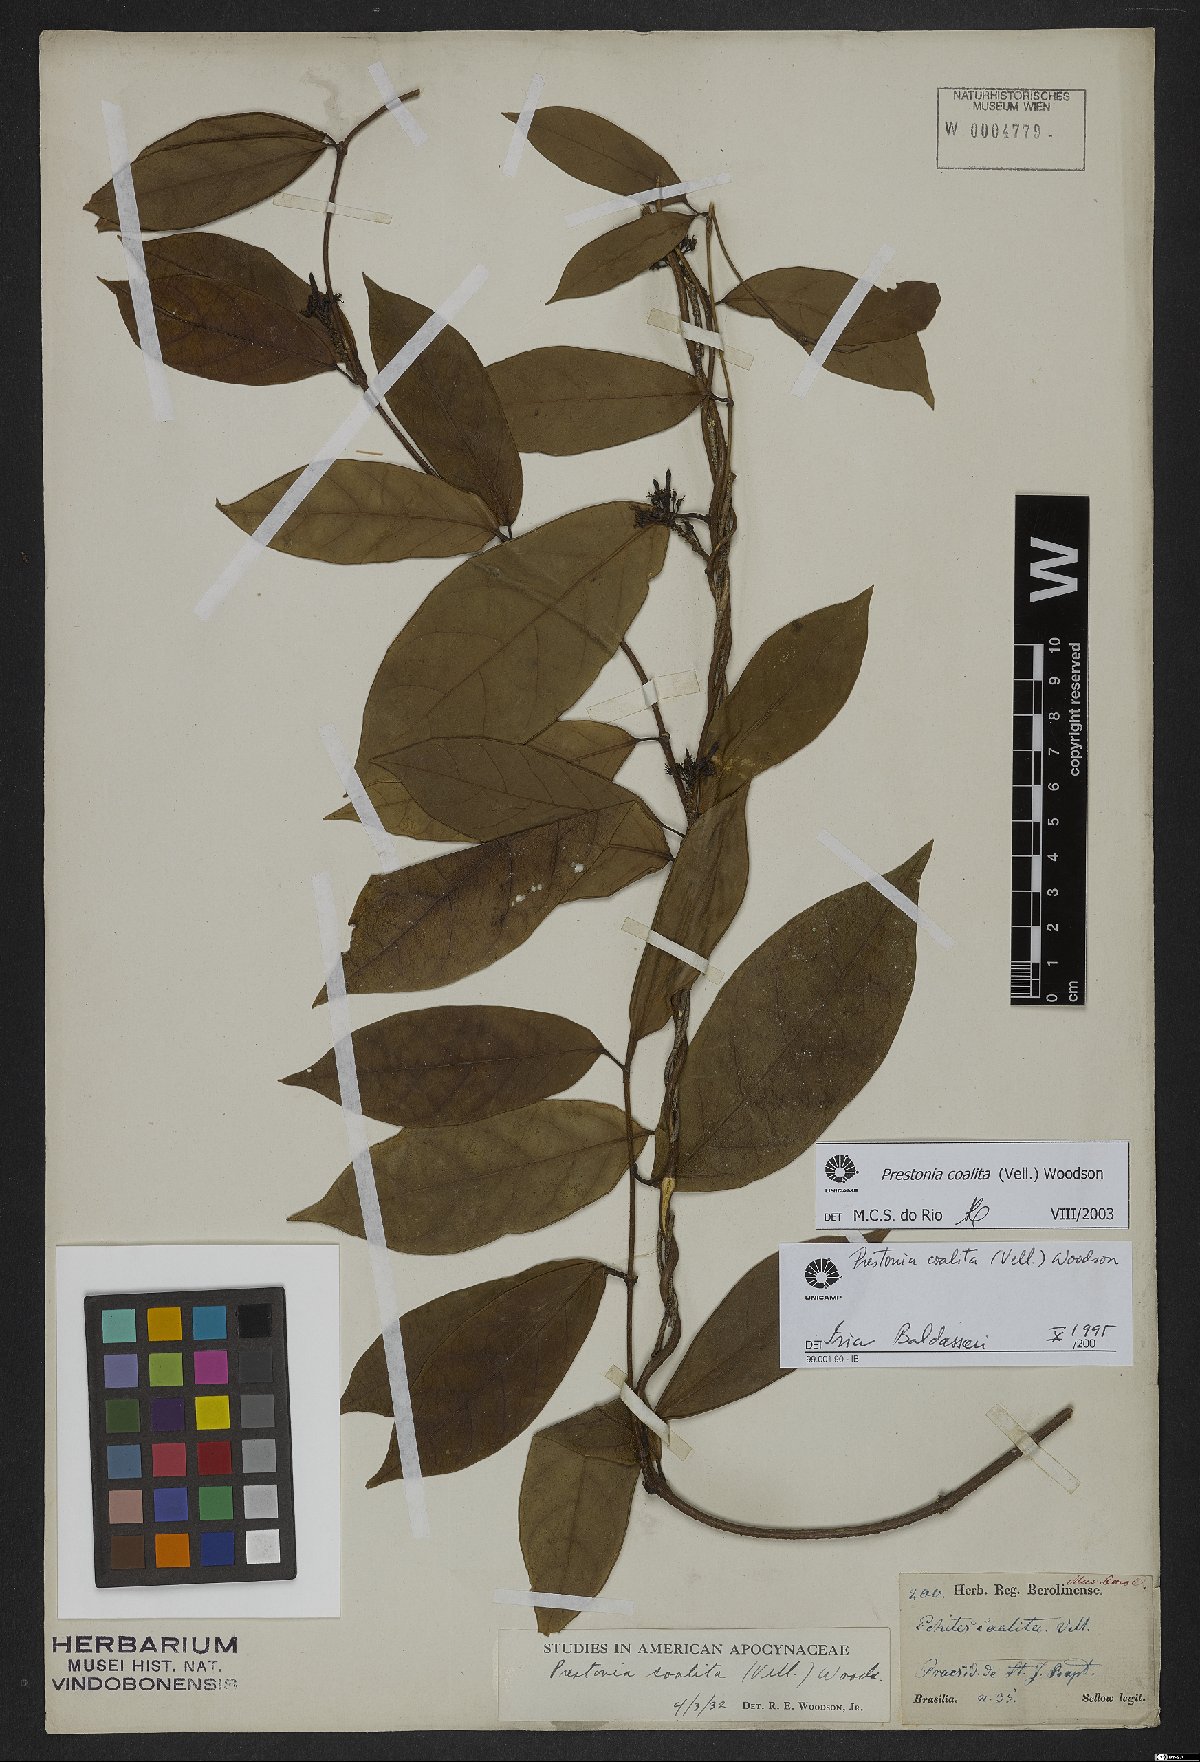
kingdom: Plantae
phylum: Tracheophyta
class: Magnoliopsida
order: Gentianales
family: Apocynaceae
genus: Prestonia
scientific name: Prestonia coalita
